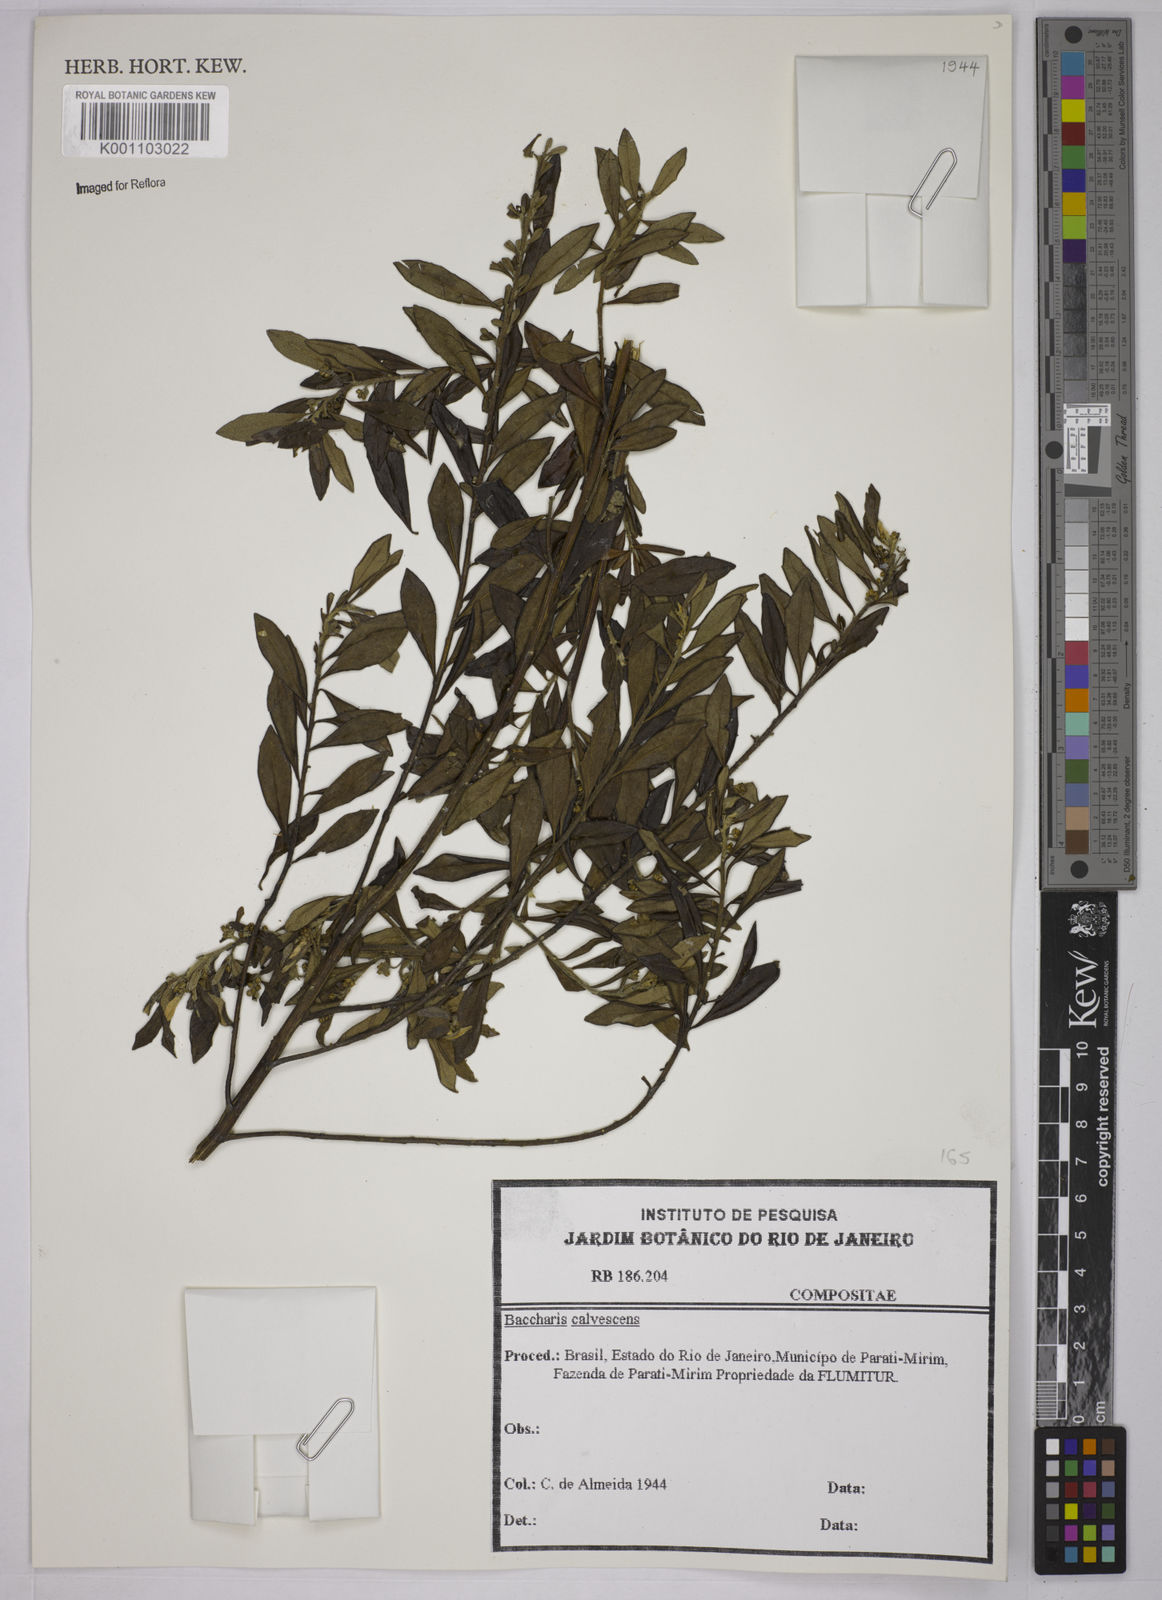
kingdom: Plantae
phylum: Tracheophyta
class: Magnoliopsida
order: Asterales
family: Asteraceae
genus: Baccharis
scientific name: Baccharis calvescens
